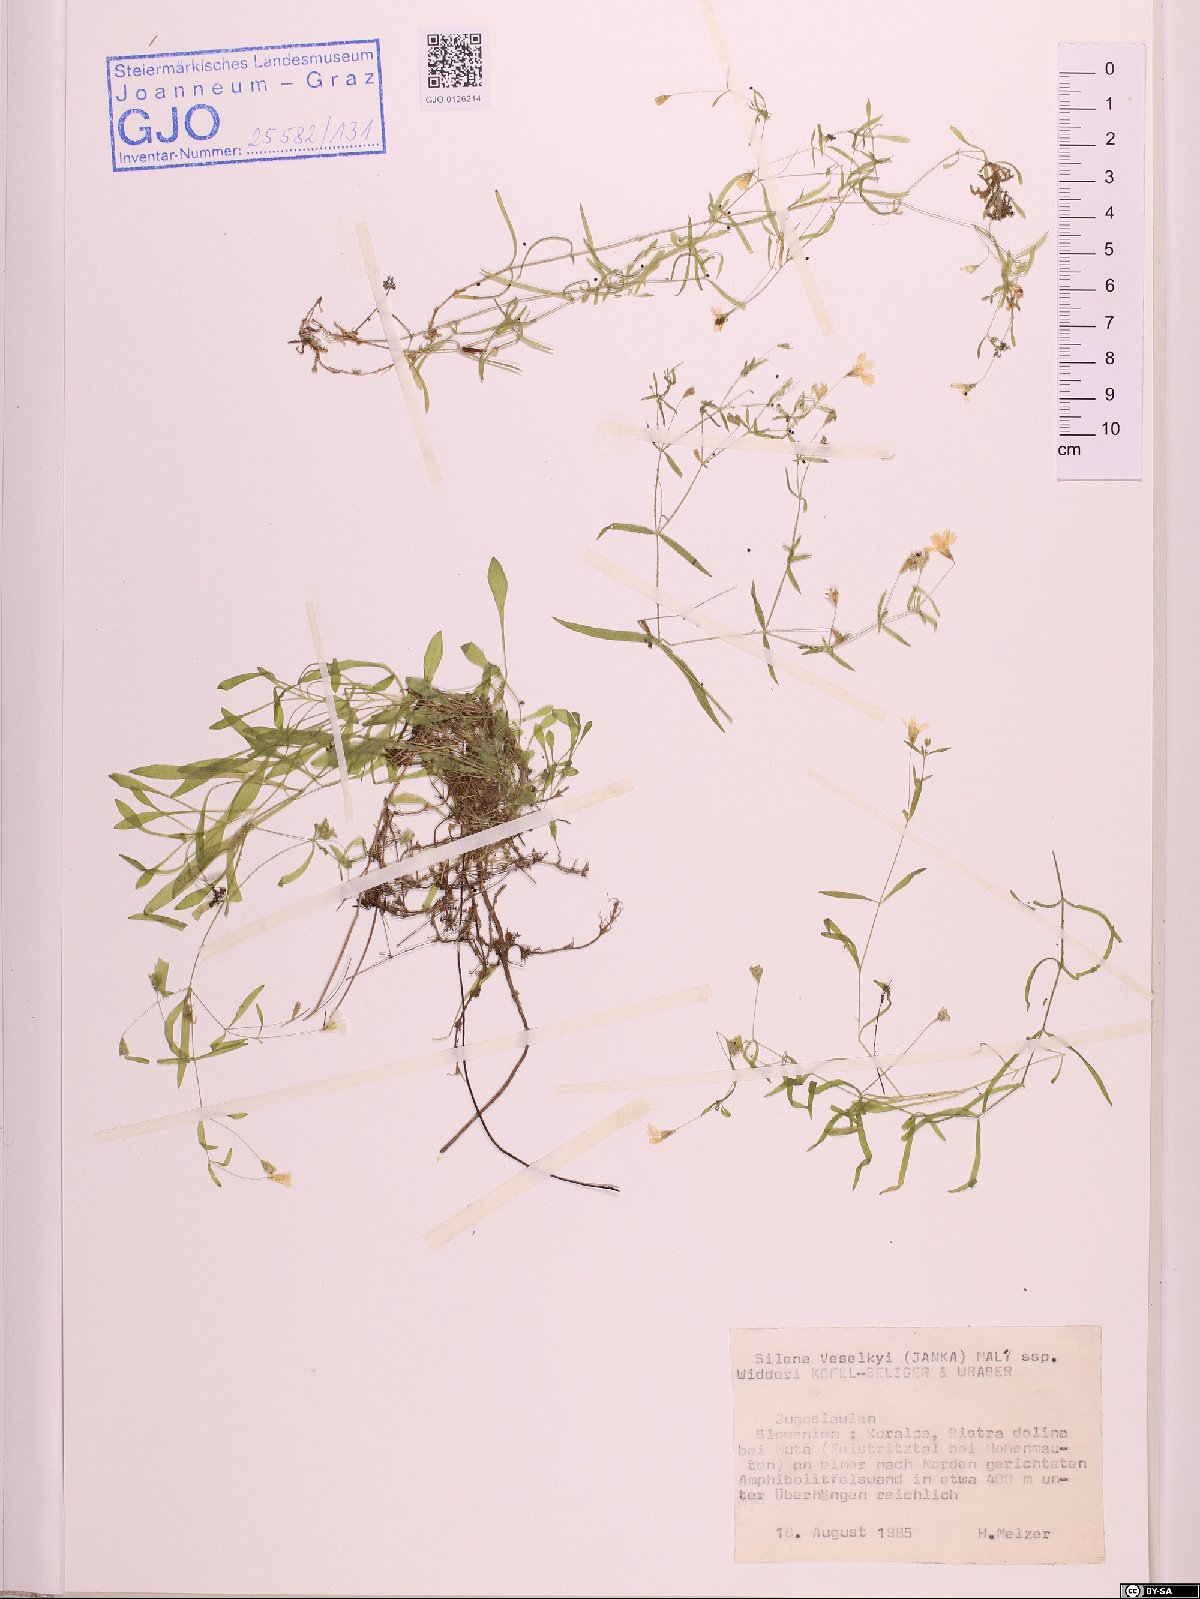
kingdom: Plantae
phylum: Tracheophyta
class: Magnoliopsida
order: Caryophyllales
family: Caryophyllaceae
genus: Heliosperma
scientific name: Heliosperma veselskyi
